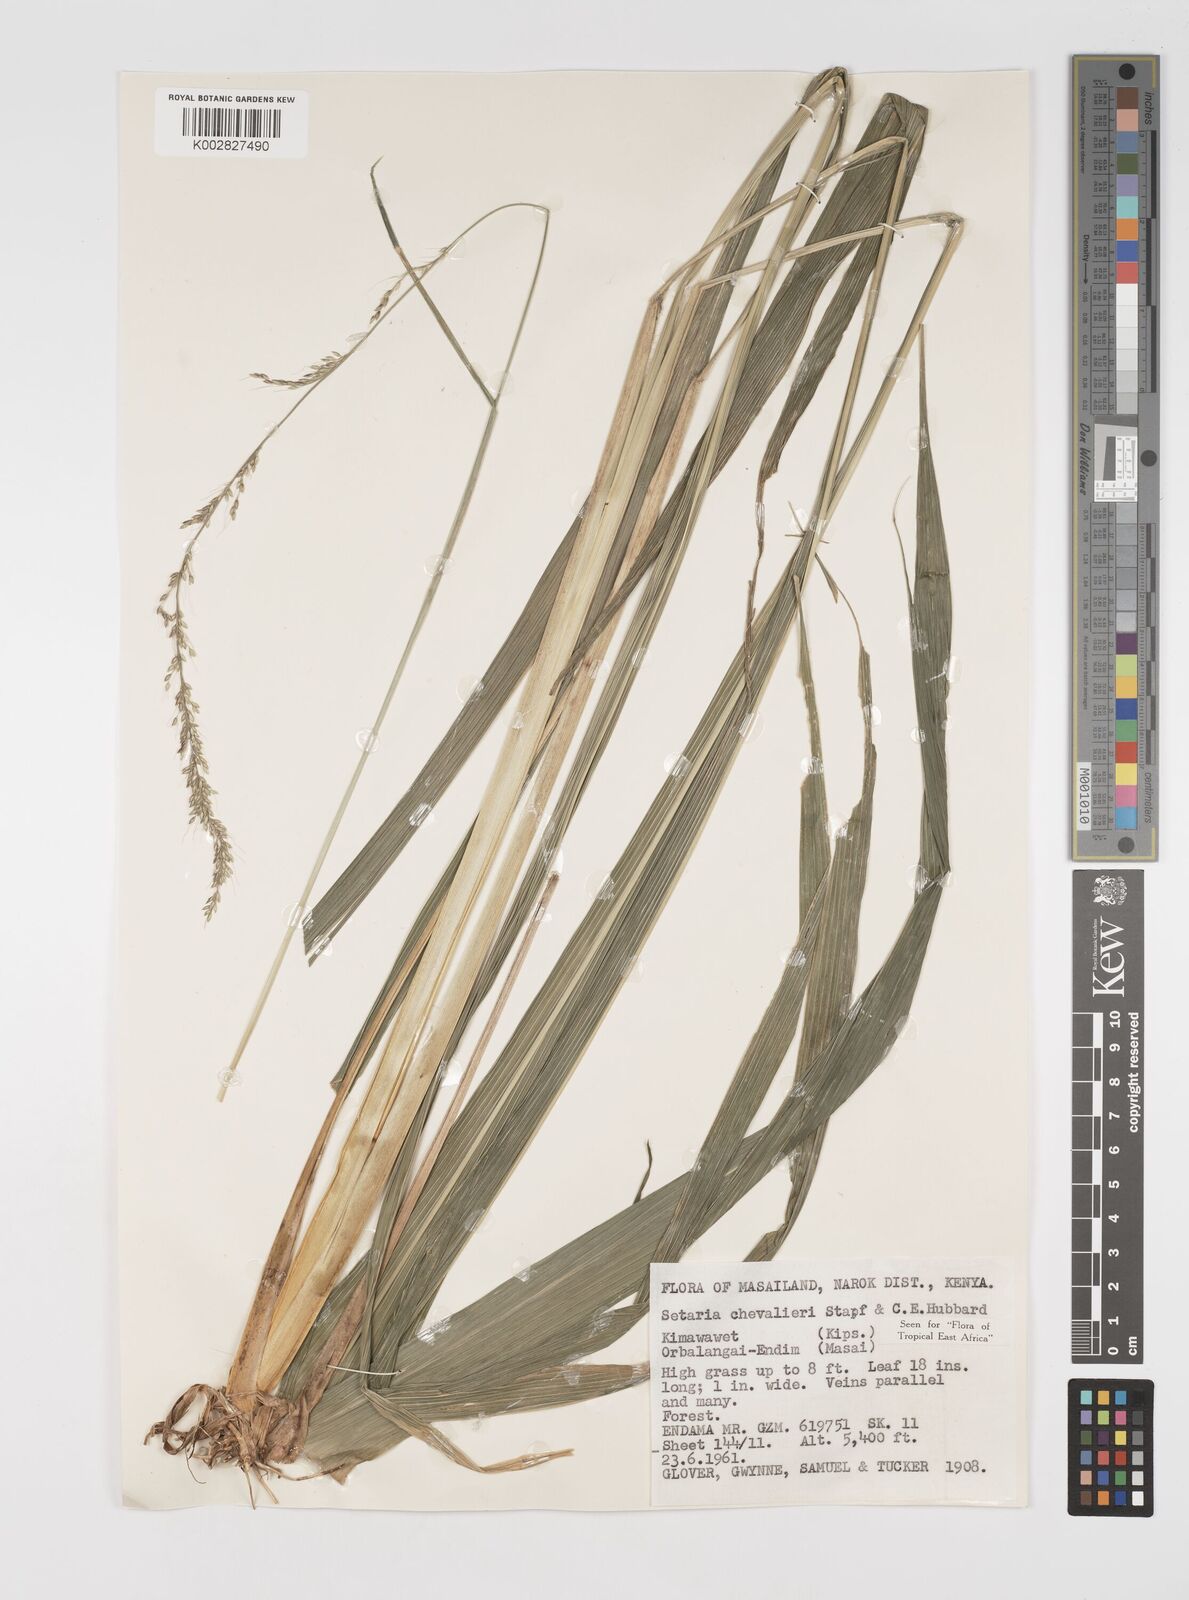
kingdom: Plantae
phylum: Tracheophyta
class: Liliopsida
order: Poales
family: Poaceae
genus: Setaria
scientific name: Setaria megaphylla
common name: Bigleaf bristlegrass
